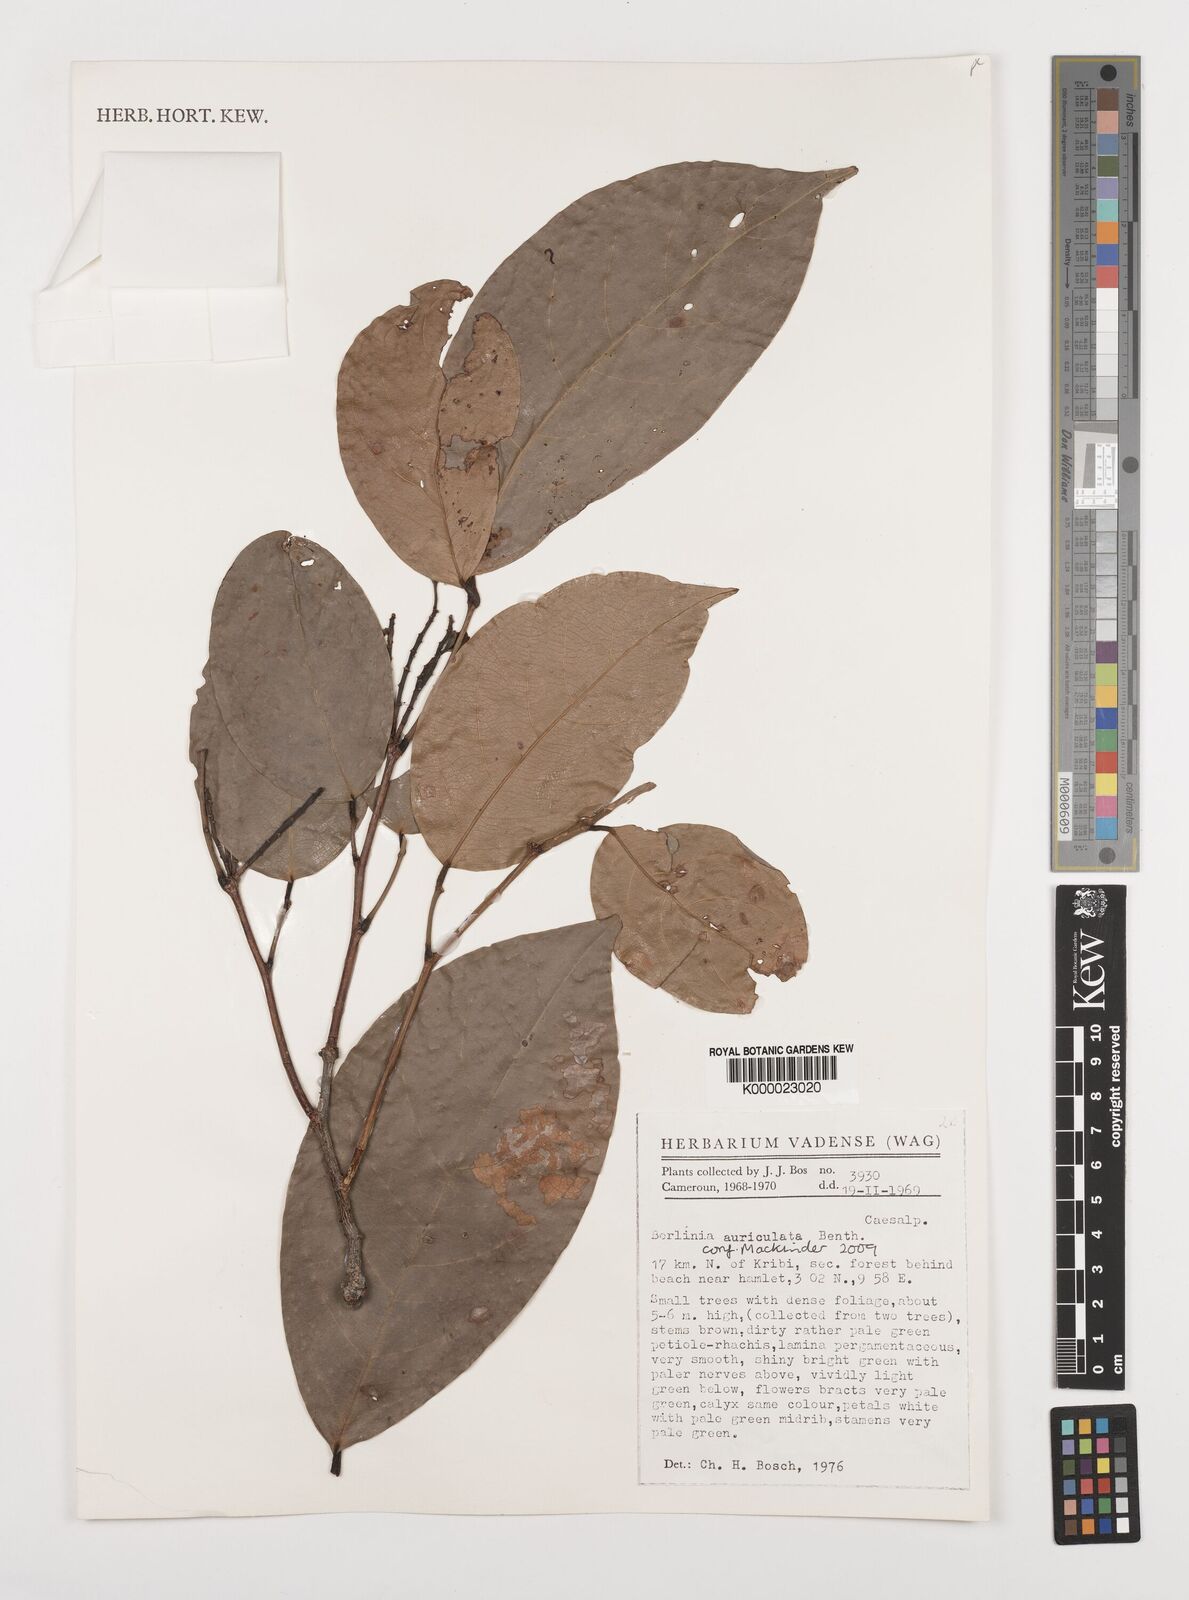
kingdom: Plantae
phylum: Tracheophyta
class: Magnoliopsida
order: Fabales
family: Fabaceae
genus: Berlinia
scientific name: Berlinia auriculata
